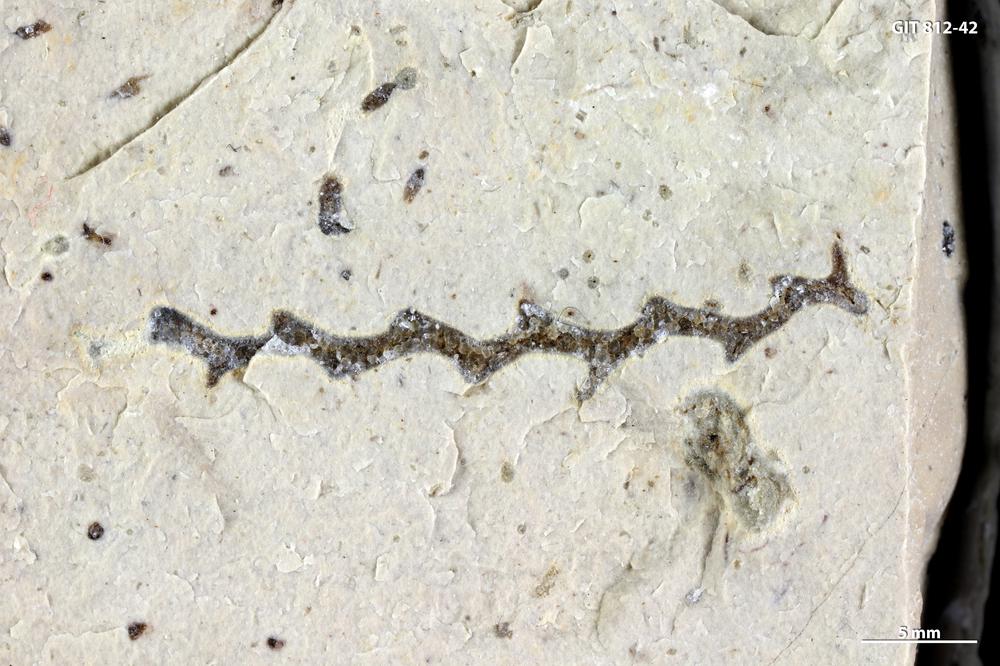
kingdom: Animalia
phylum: Cnidaria
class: Hydrozoa
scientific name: Hydrozoa
